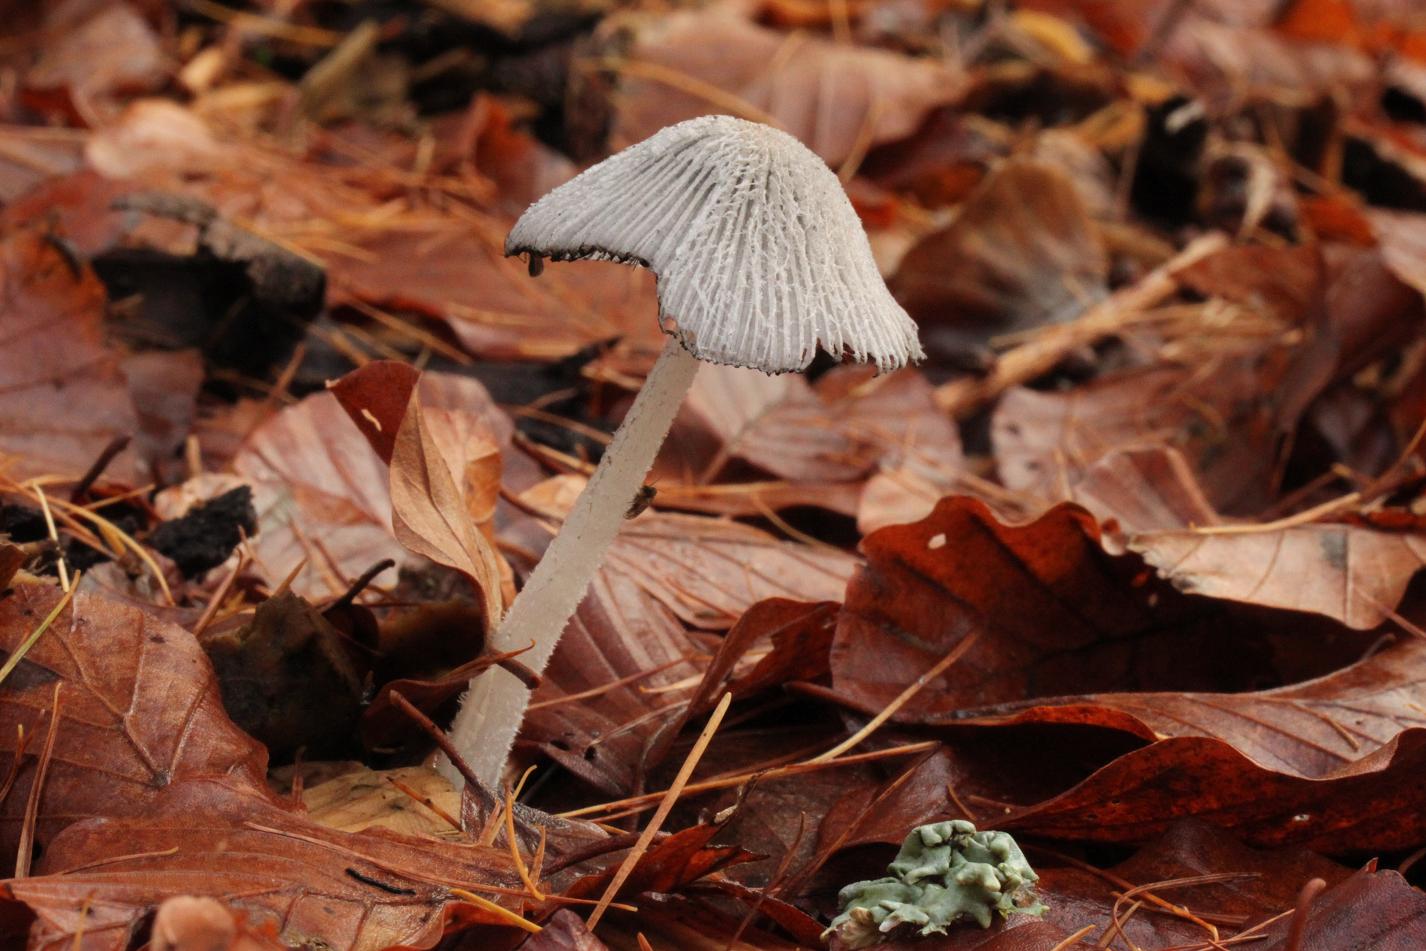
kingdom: Fungi
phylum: Basidiomycota
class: Agaricomycetes
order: Agaricales
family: Psathyrellaceae
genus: Coprinopsis
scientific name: Coprinopsis lagopus
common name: dunstokket blækhat
